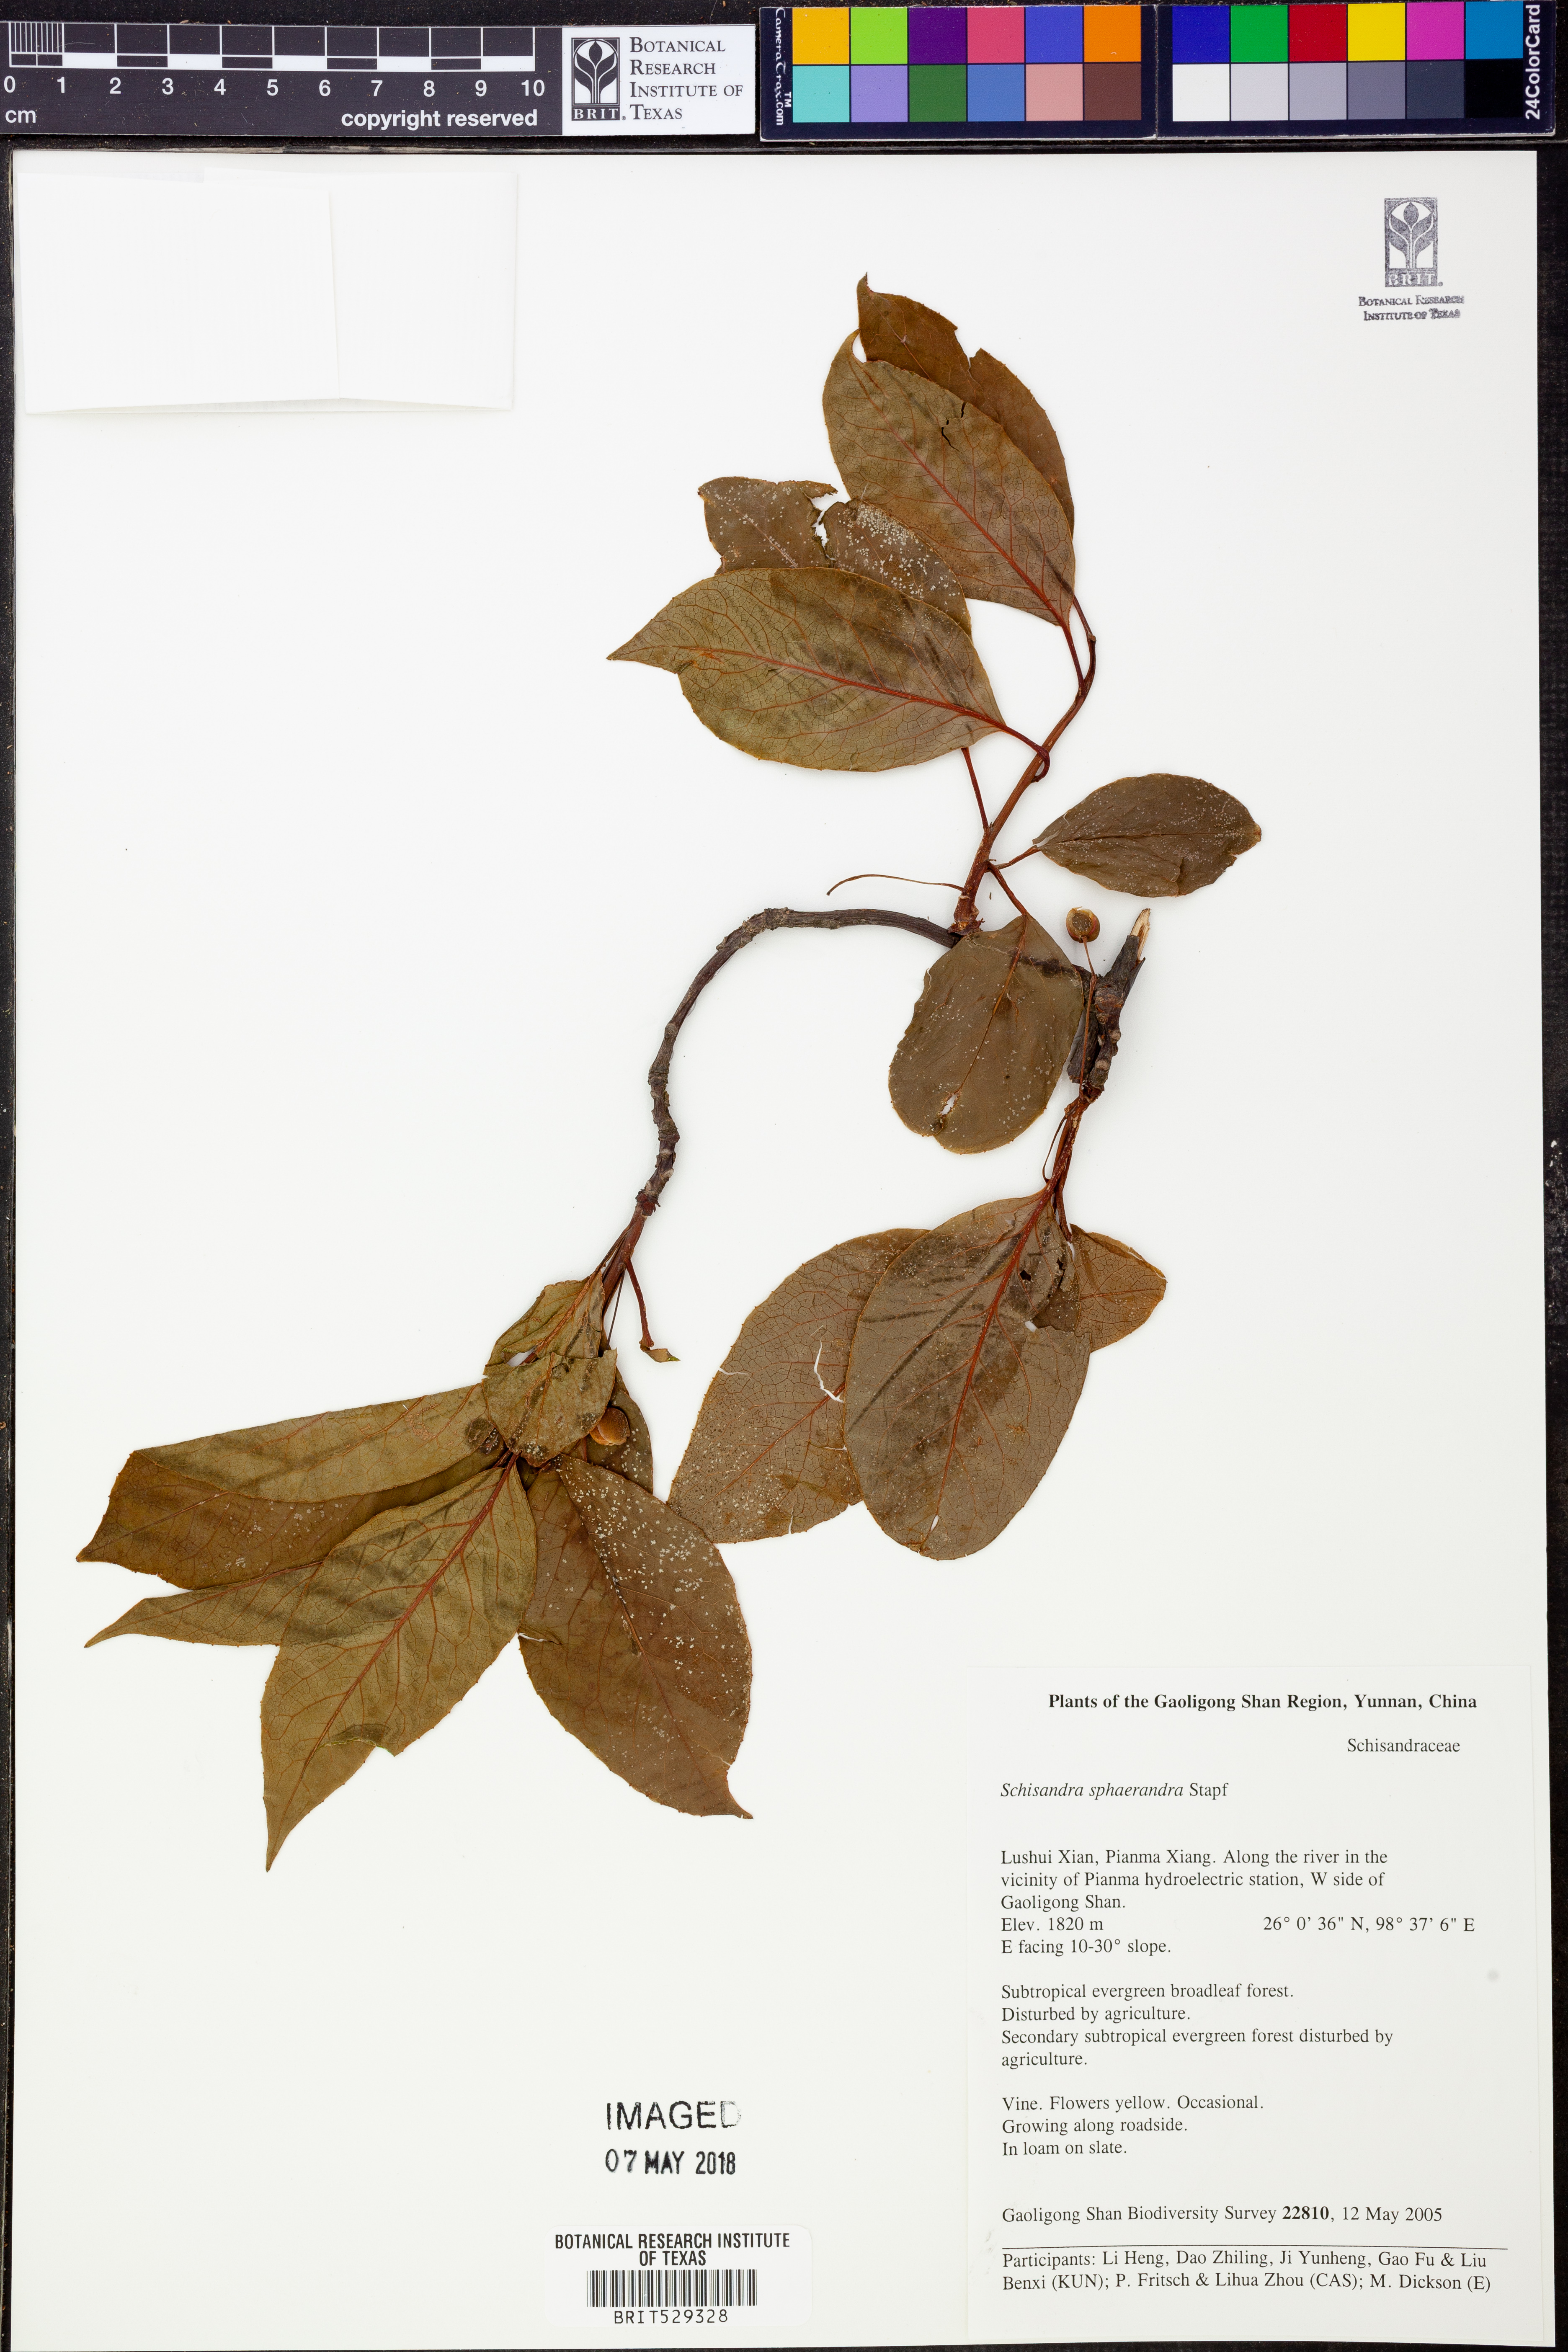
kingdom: Plantae
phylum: Tracheophyta
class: Magnoliopsida
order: Austrobaileyales
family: Schisandraceae
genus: Schisandra
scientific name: Schisandra sphaerandra
